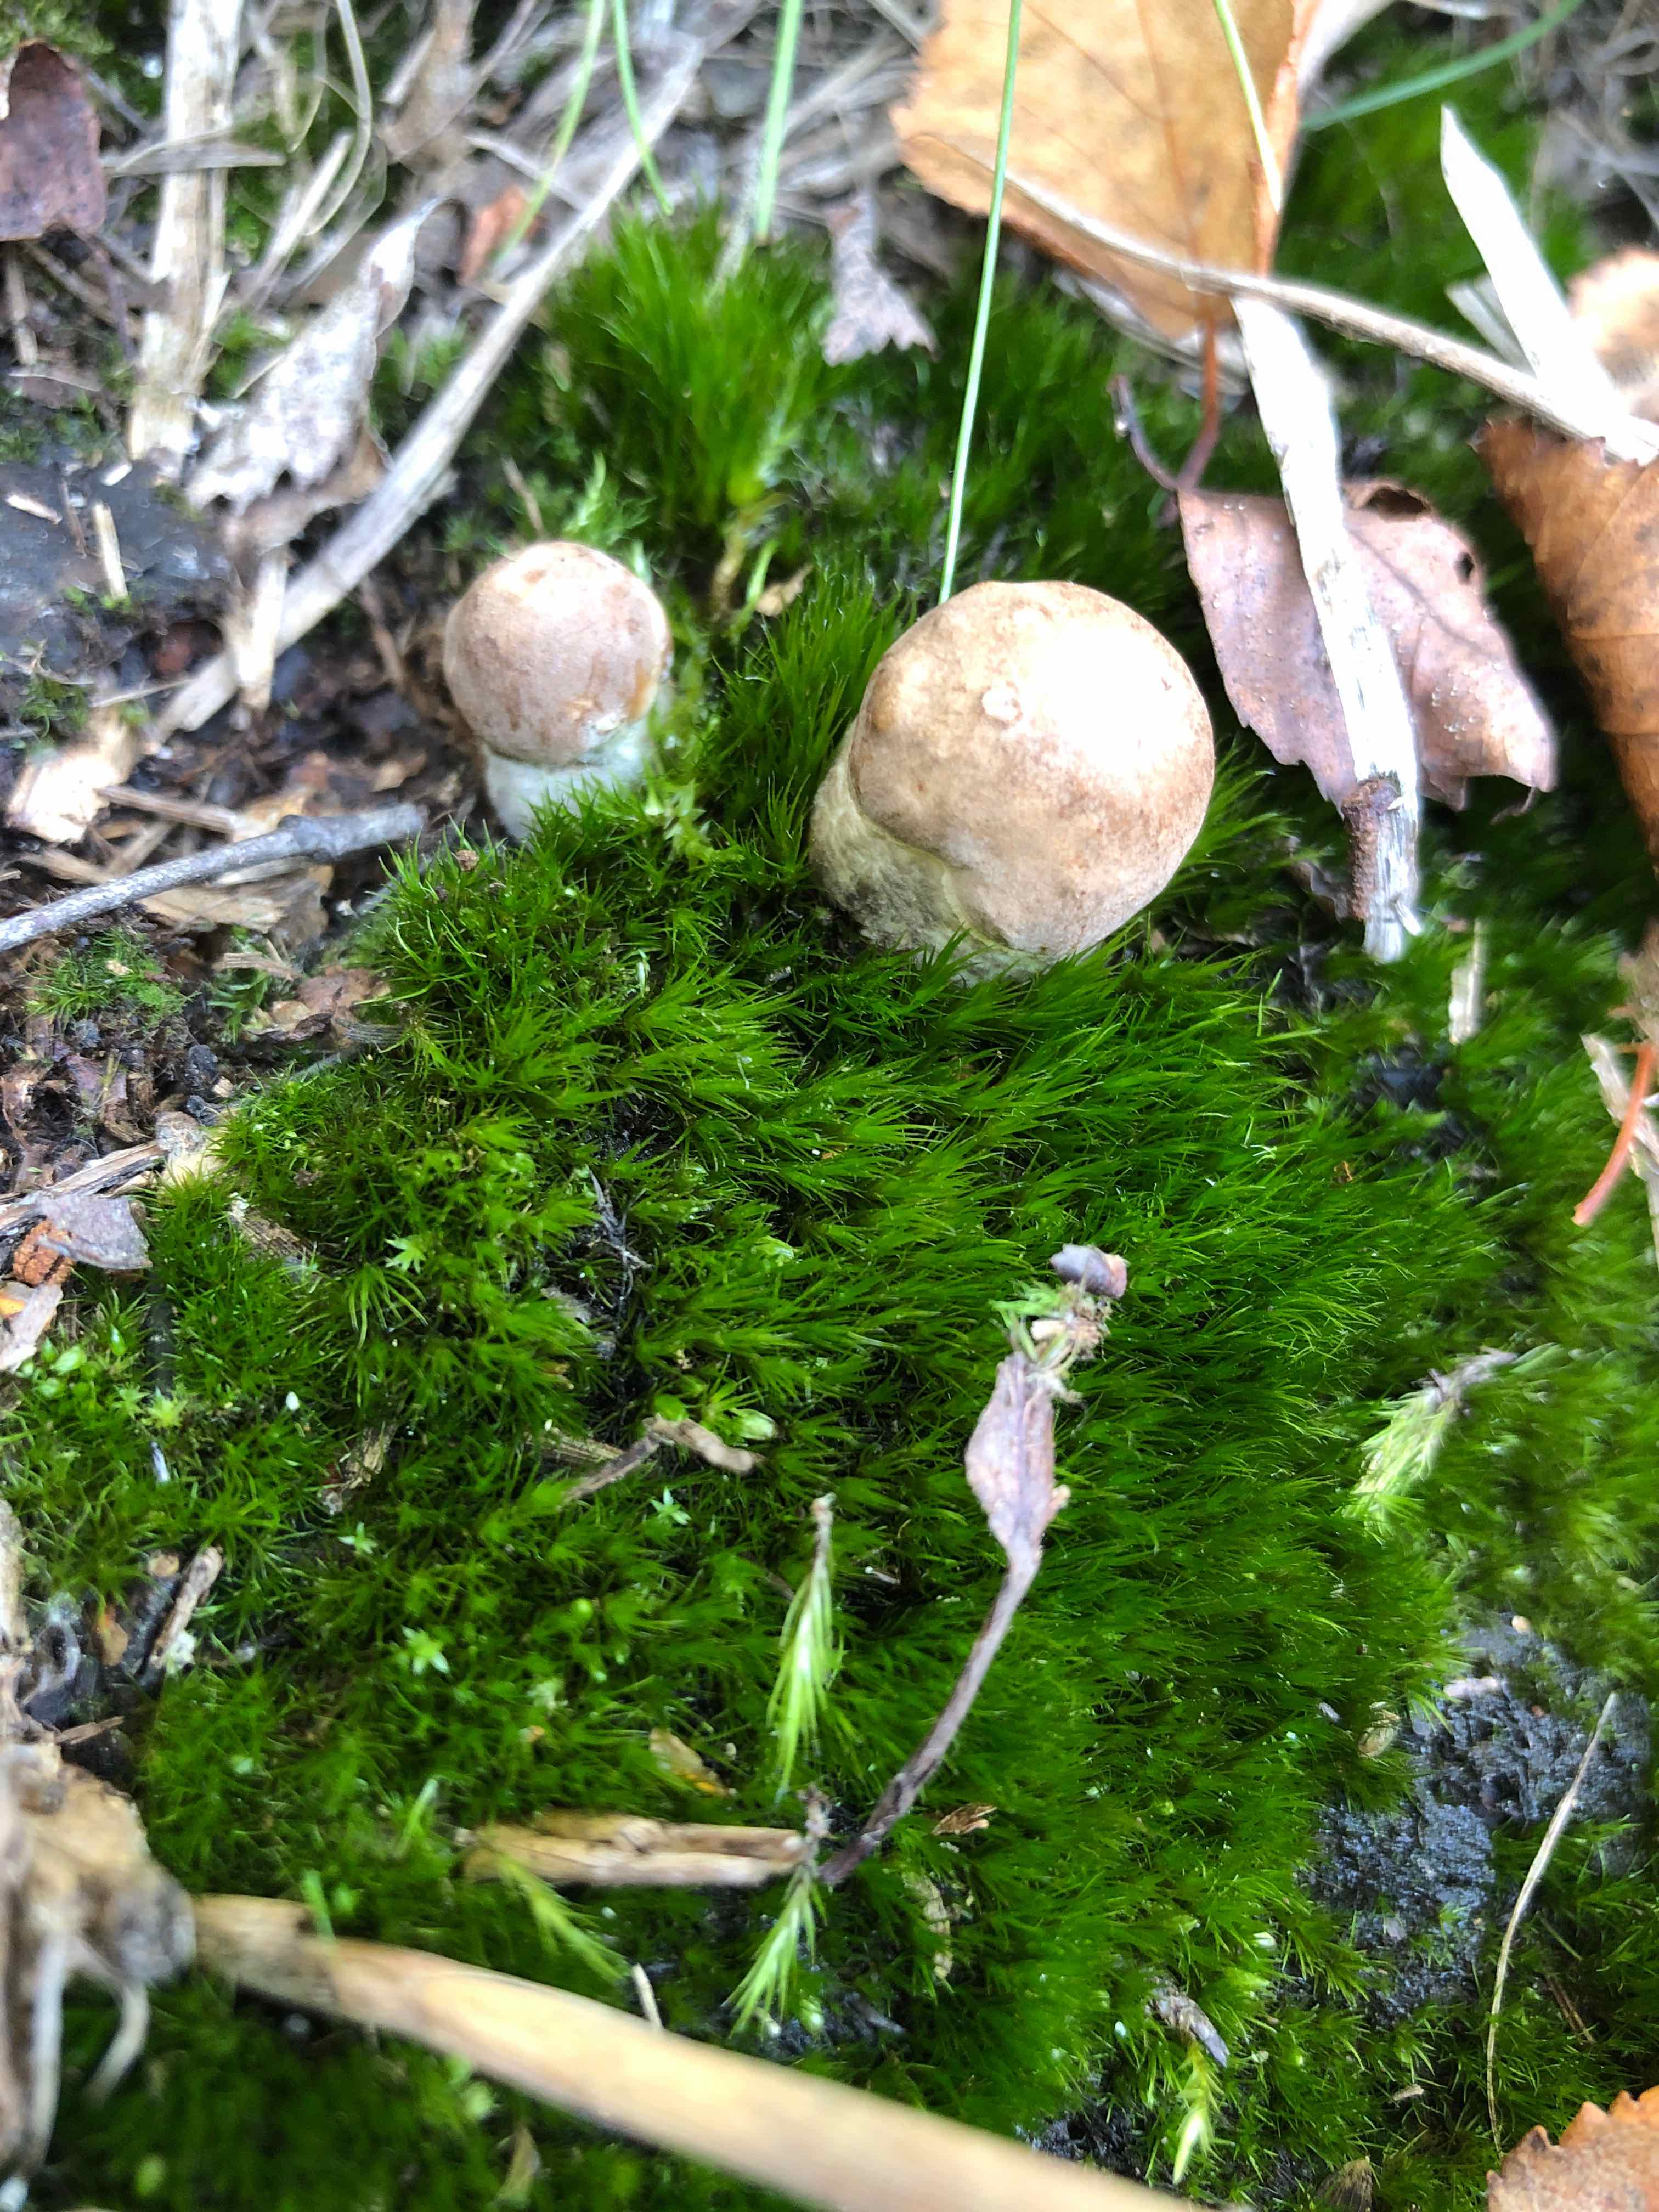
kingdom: Fungi
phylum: Basidiomycota
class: Agaricomycetes
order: Boletales
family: Boletaceae
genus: Leccinum
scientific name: Leccinum
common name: skælrørhat
